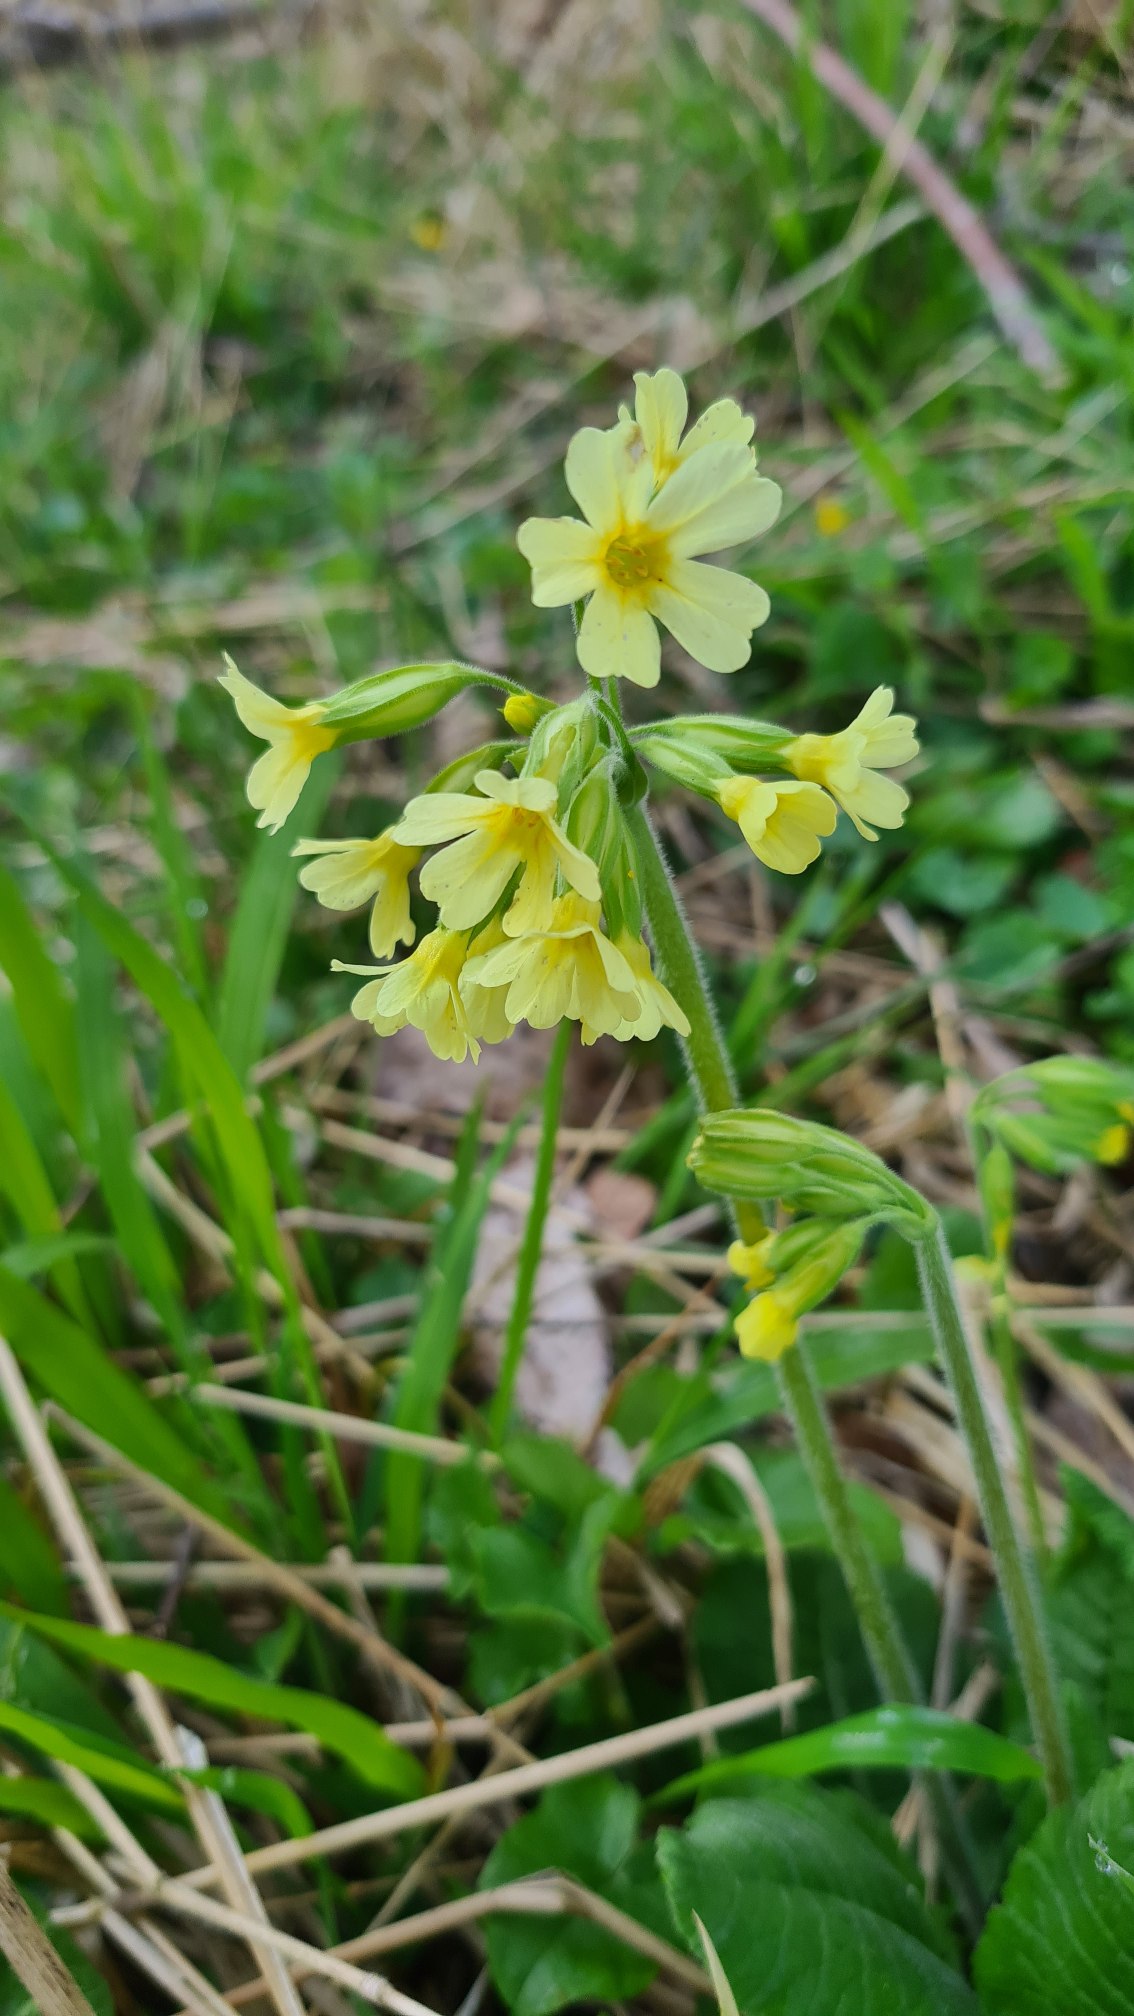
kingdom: Plantae
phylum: Tracheophyta
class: Magnoliopsida
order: Ericales
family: Primulaceae
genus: Primula
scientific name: Primula elatior
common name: Fladkravet kodriver
